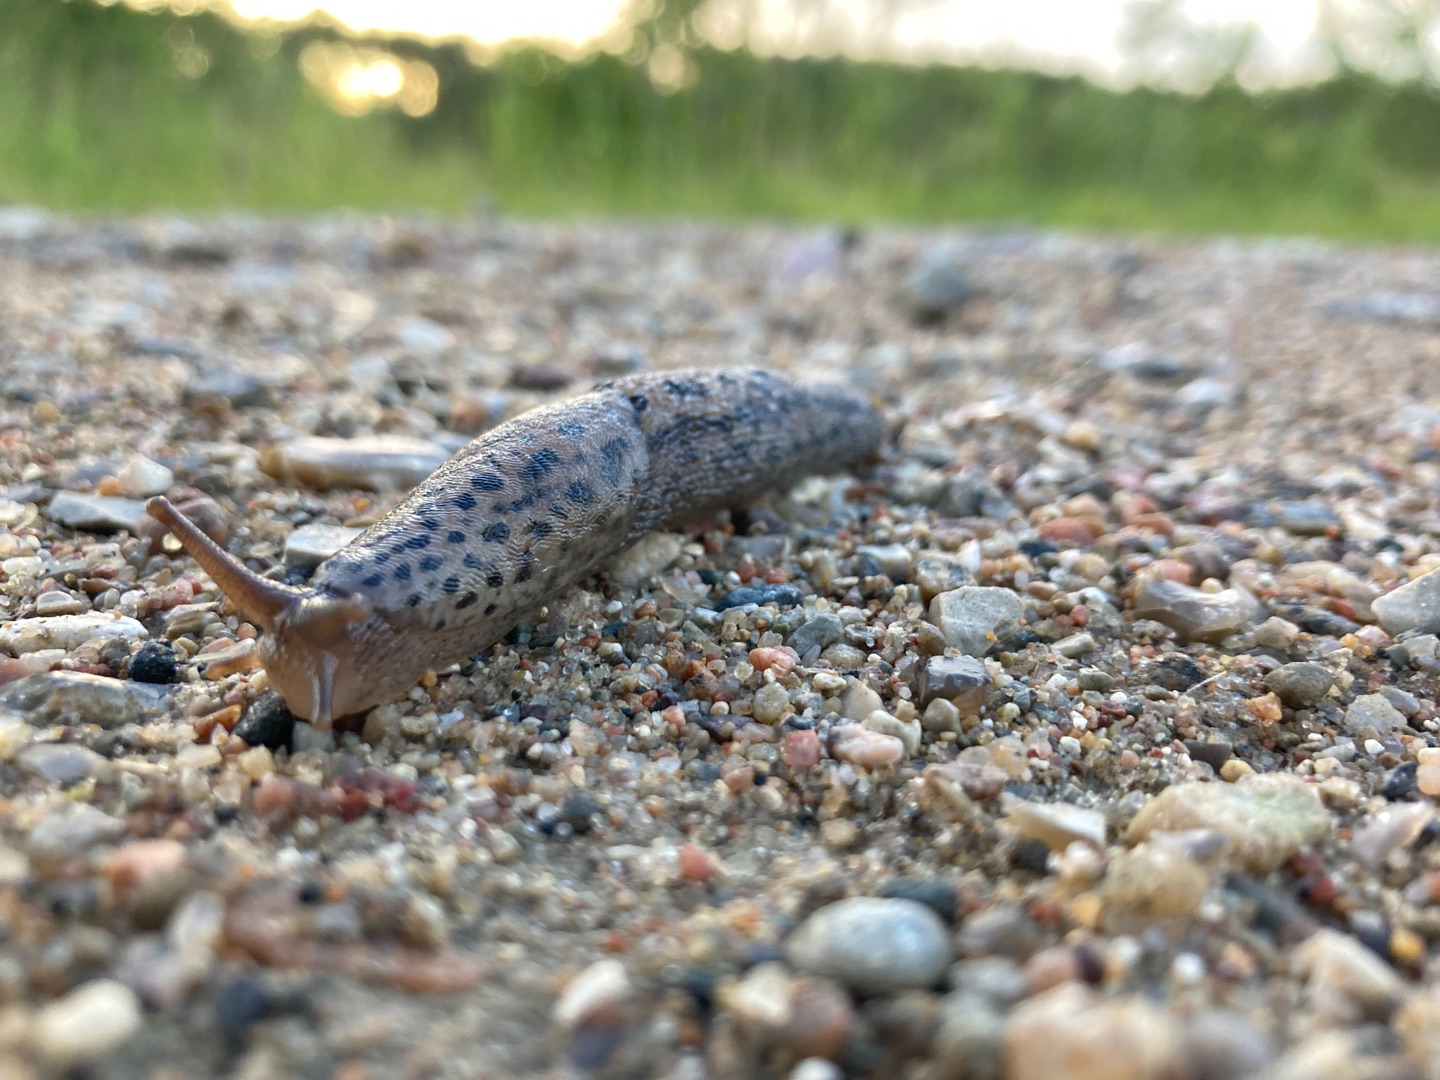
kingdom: Animalia
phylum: Mollusca
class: Gastropoda
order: Stylommatophora
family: Limacidae
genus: Limax
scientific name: Limax maximus
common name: Pantersnegl
